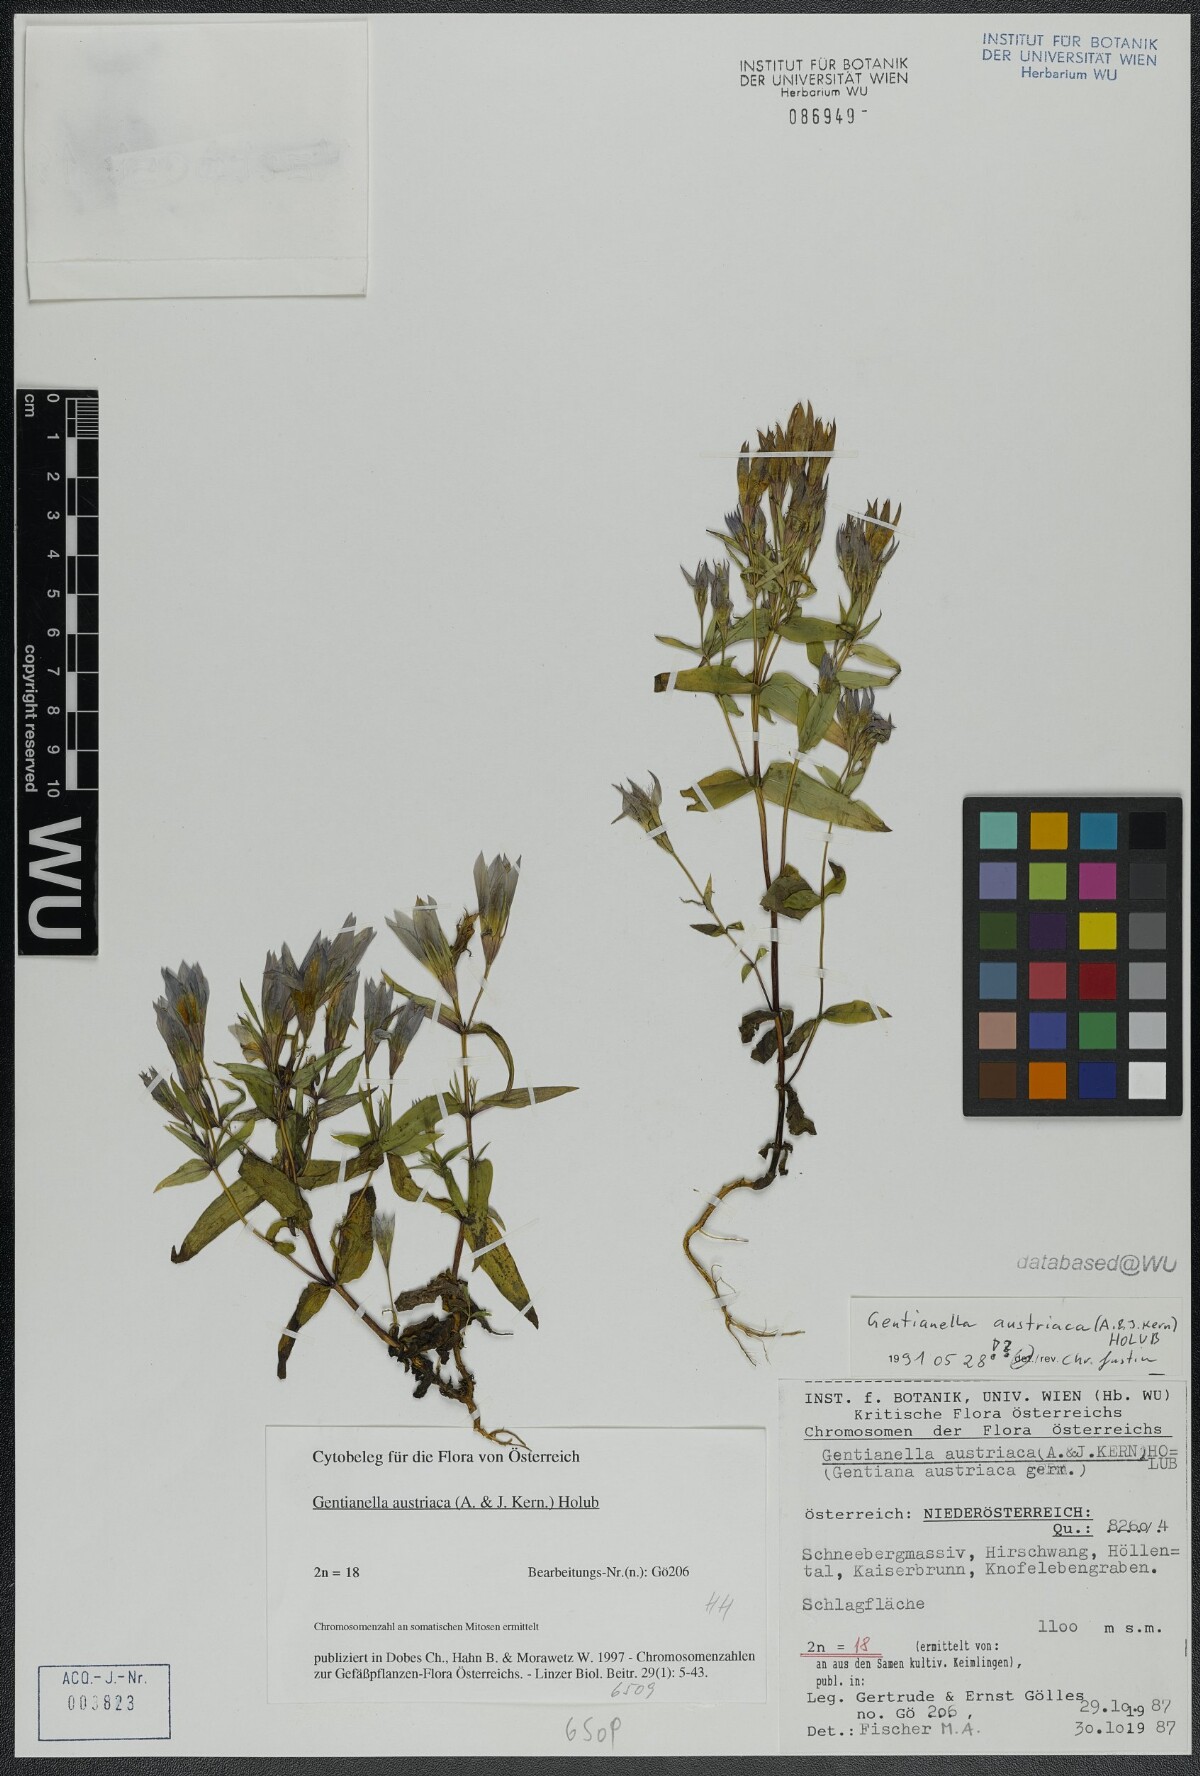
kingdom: Plantae
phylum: Tracheophyta
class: Magnoliopsida
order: Gentianales
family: Gentianaceae
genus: Gentianella
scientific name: Gentianella austriaca
